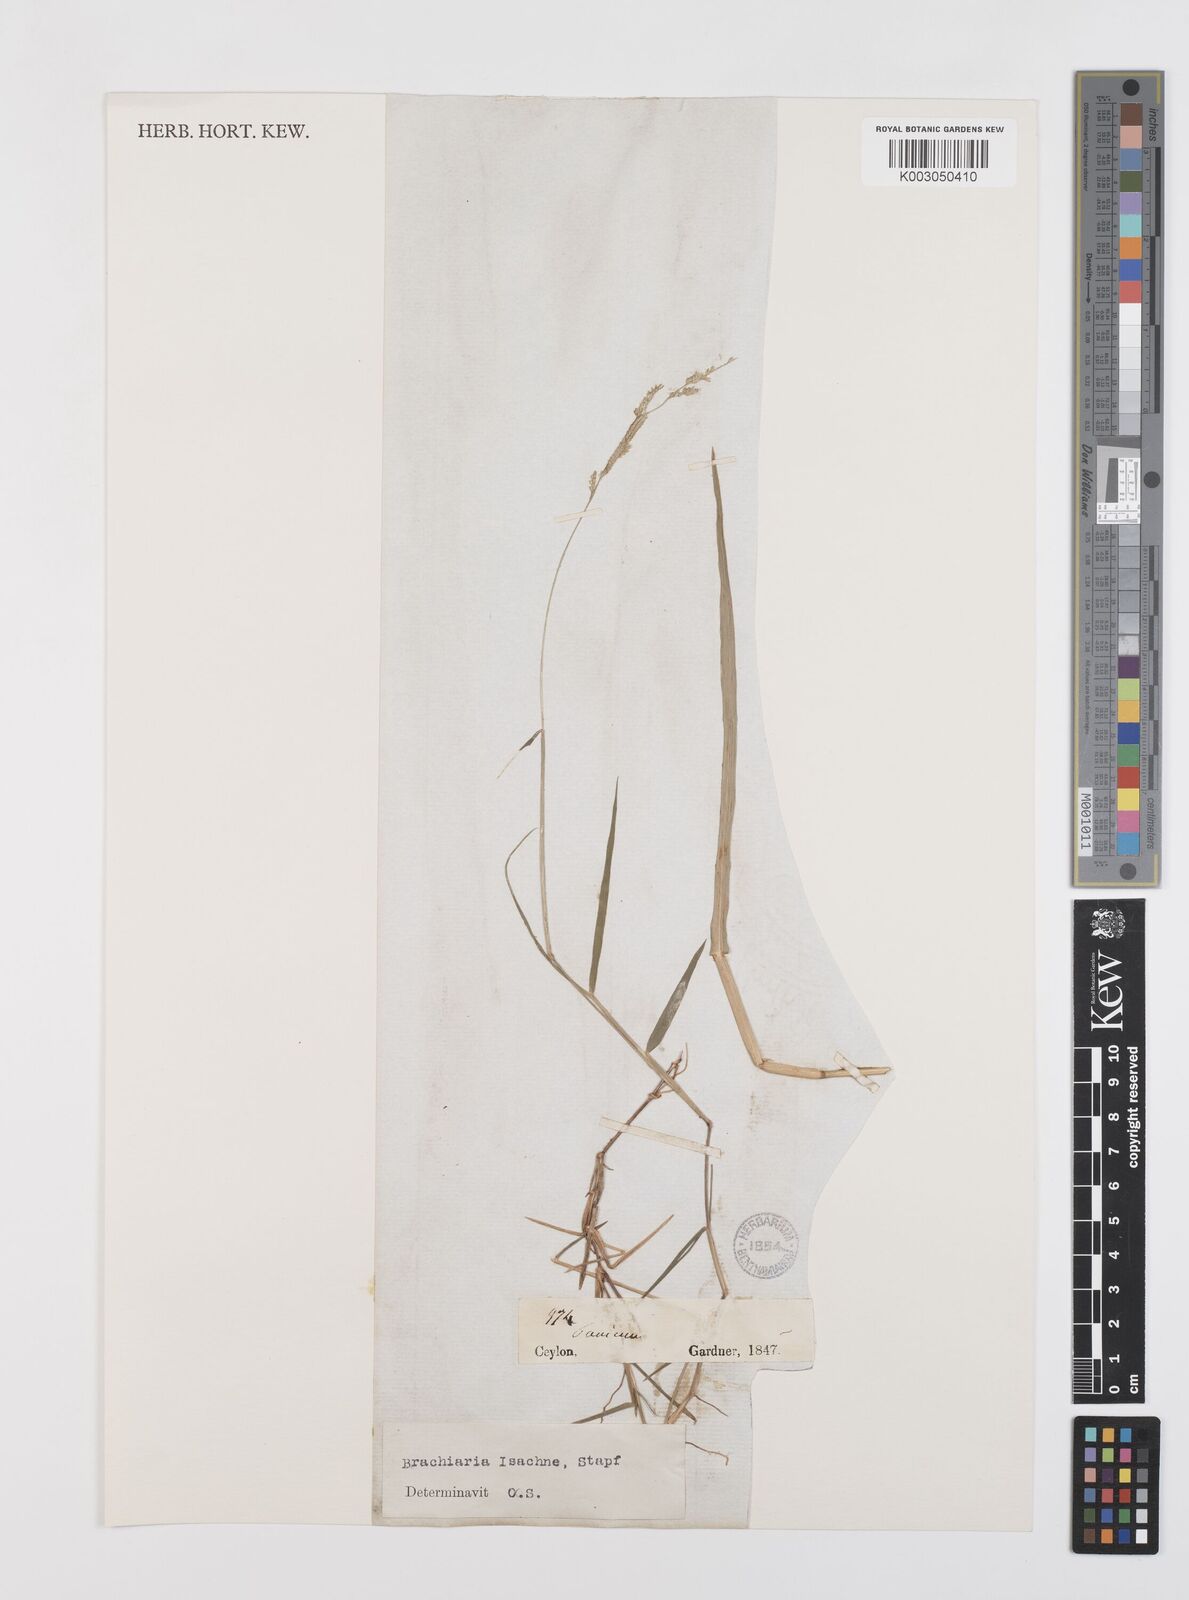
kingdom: Plantae
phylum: Tracheophyta
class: Liliopsida
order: Poales
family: Poaceae
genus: Moorochloa
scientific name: Moorochloa eruciformis
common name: Sweet signalgrass
